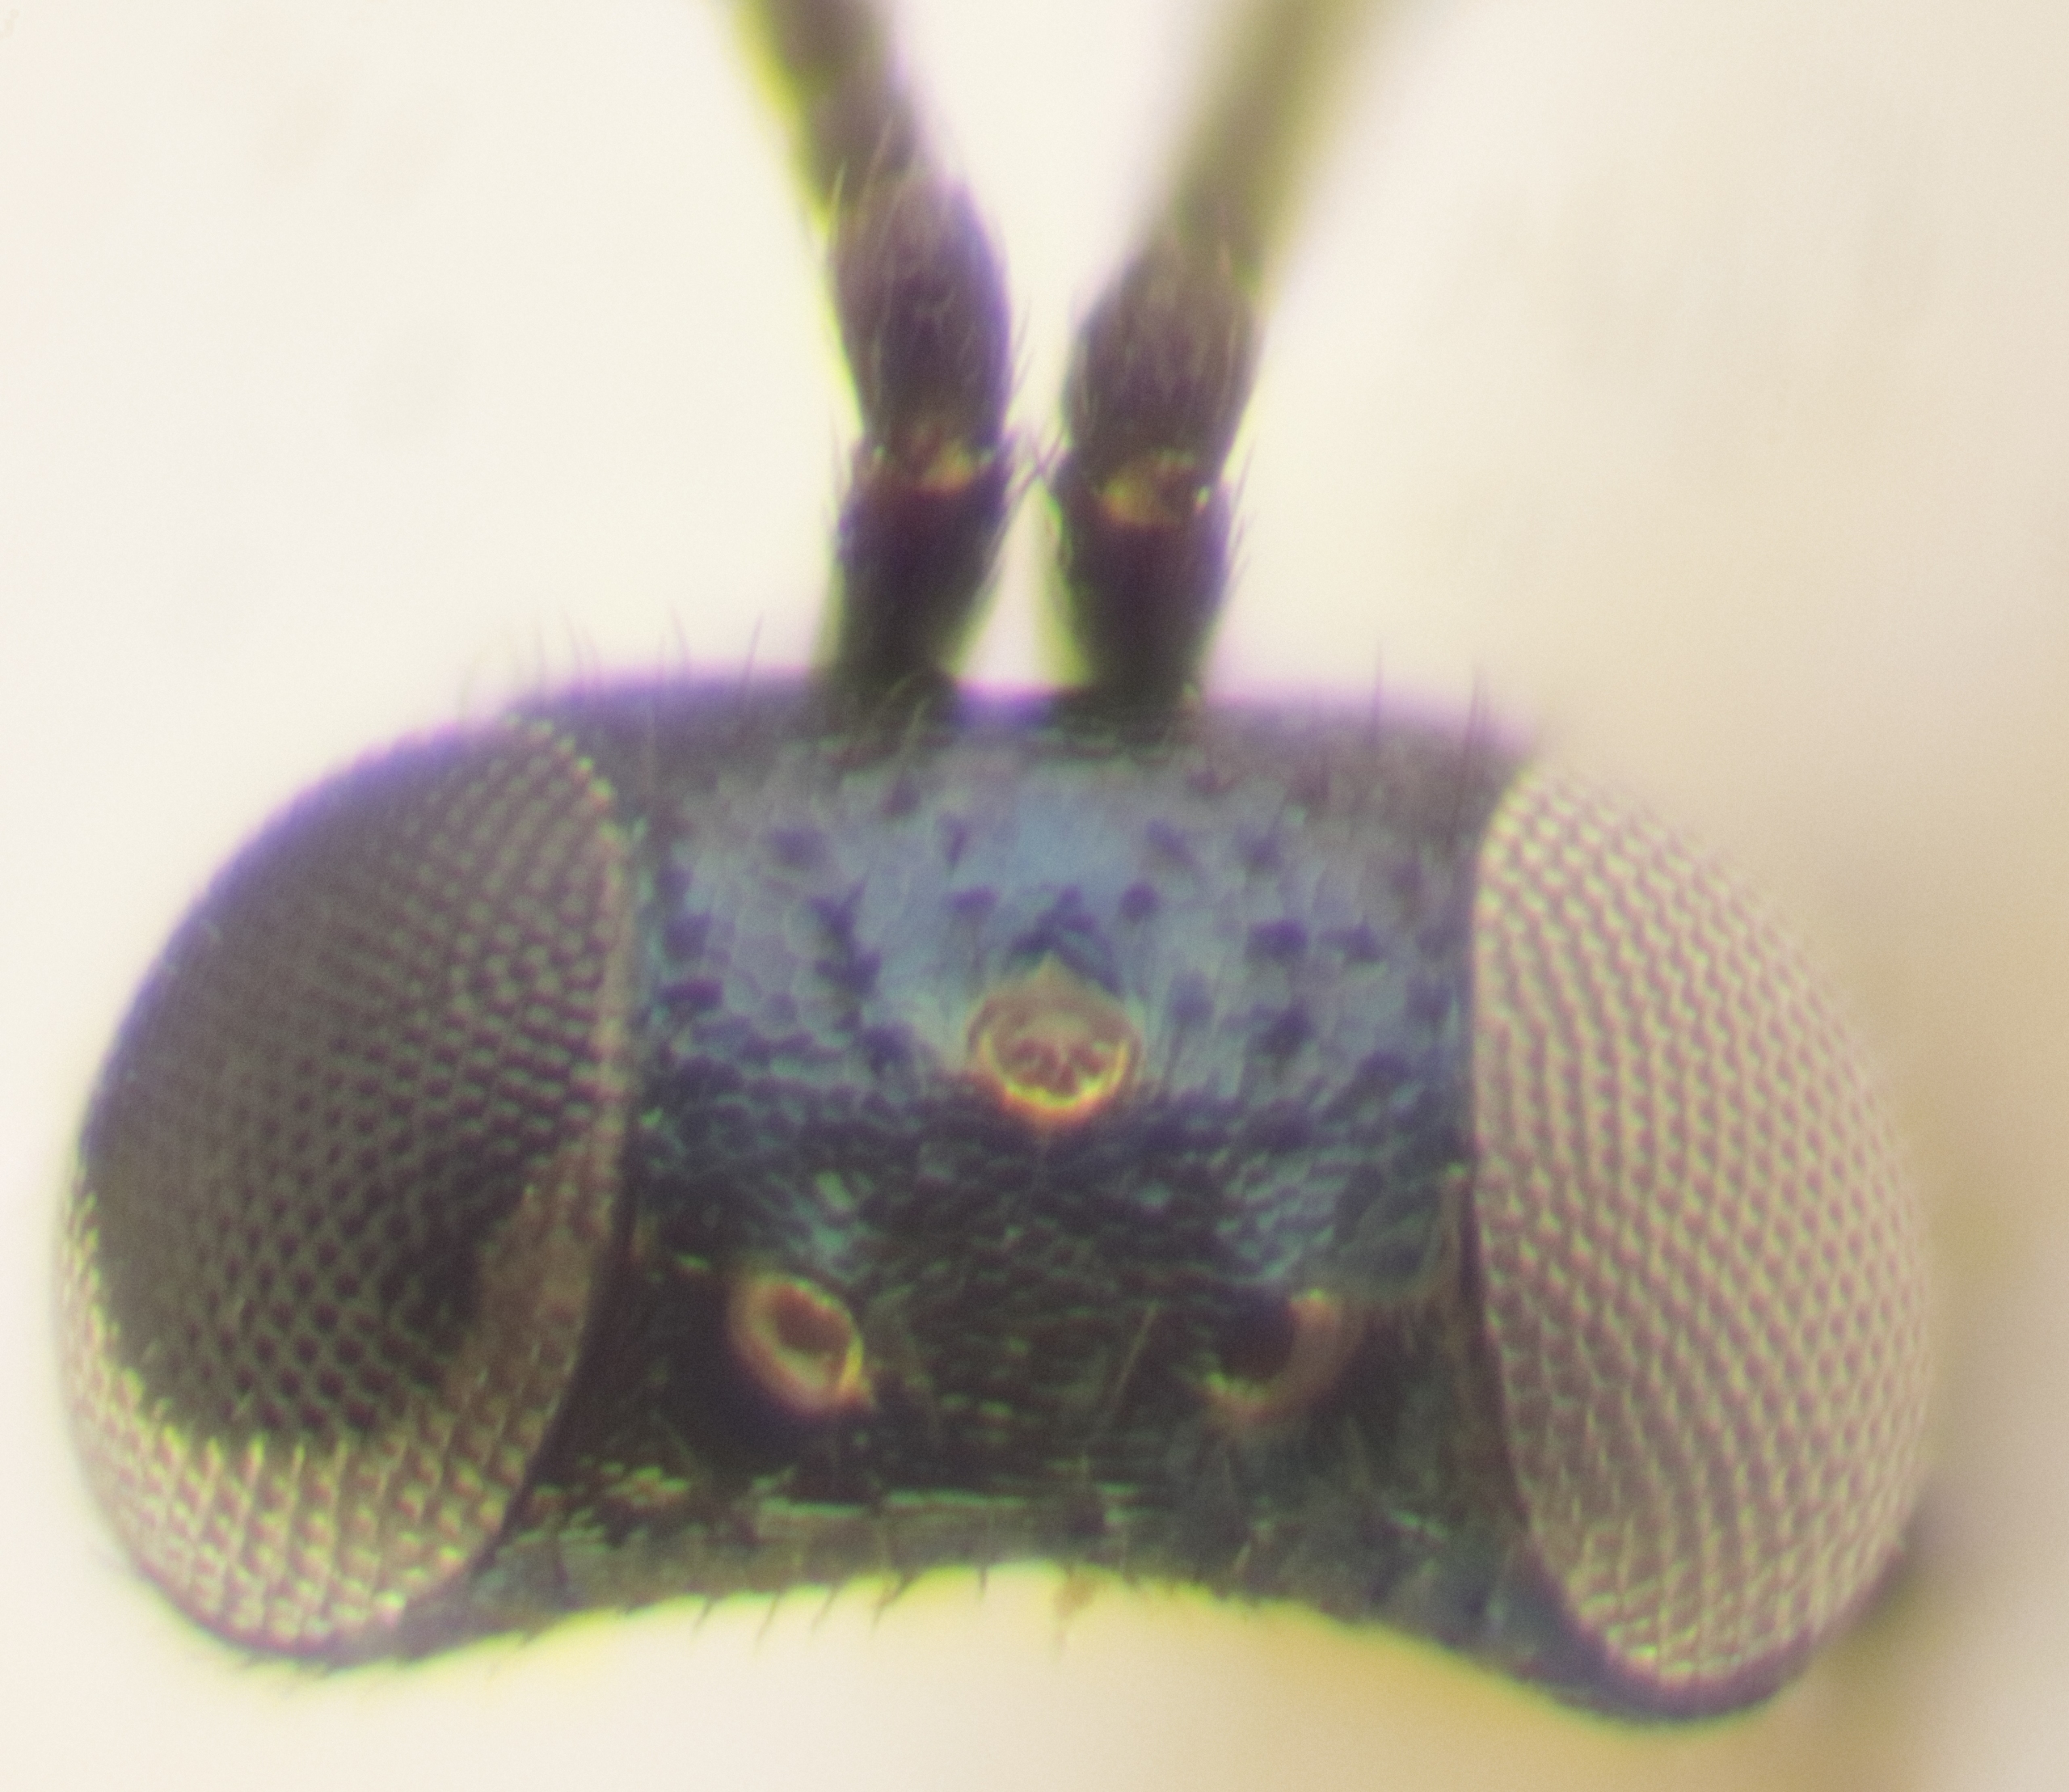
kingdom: Animalia
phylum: Arthropoda
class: Insecta
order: Hymenoptera
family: Encyrtidae
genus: Pseudencyrtus
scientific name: Pseudencyrtus misellus
